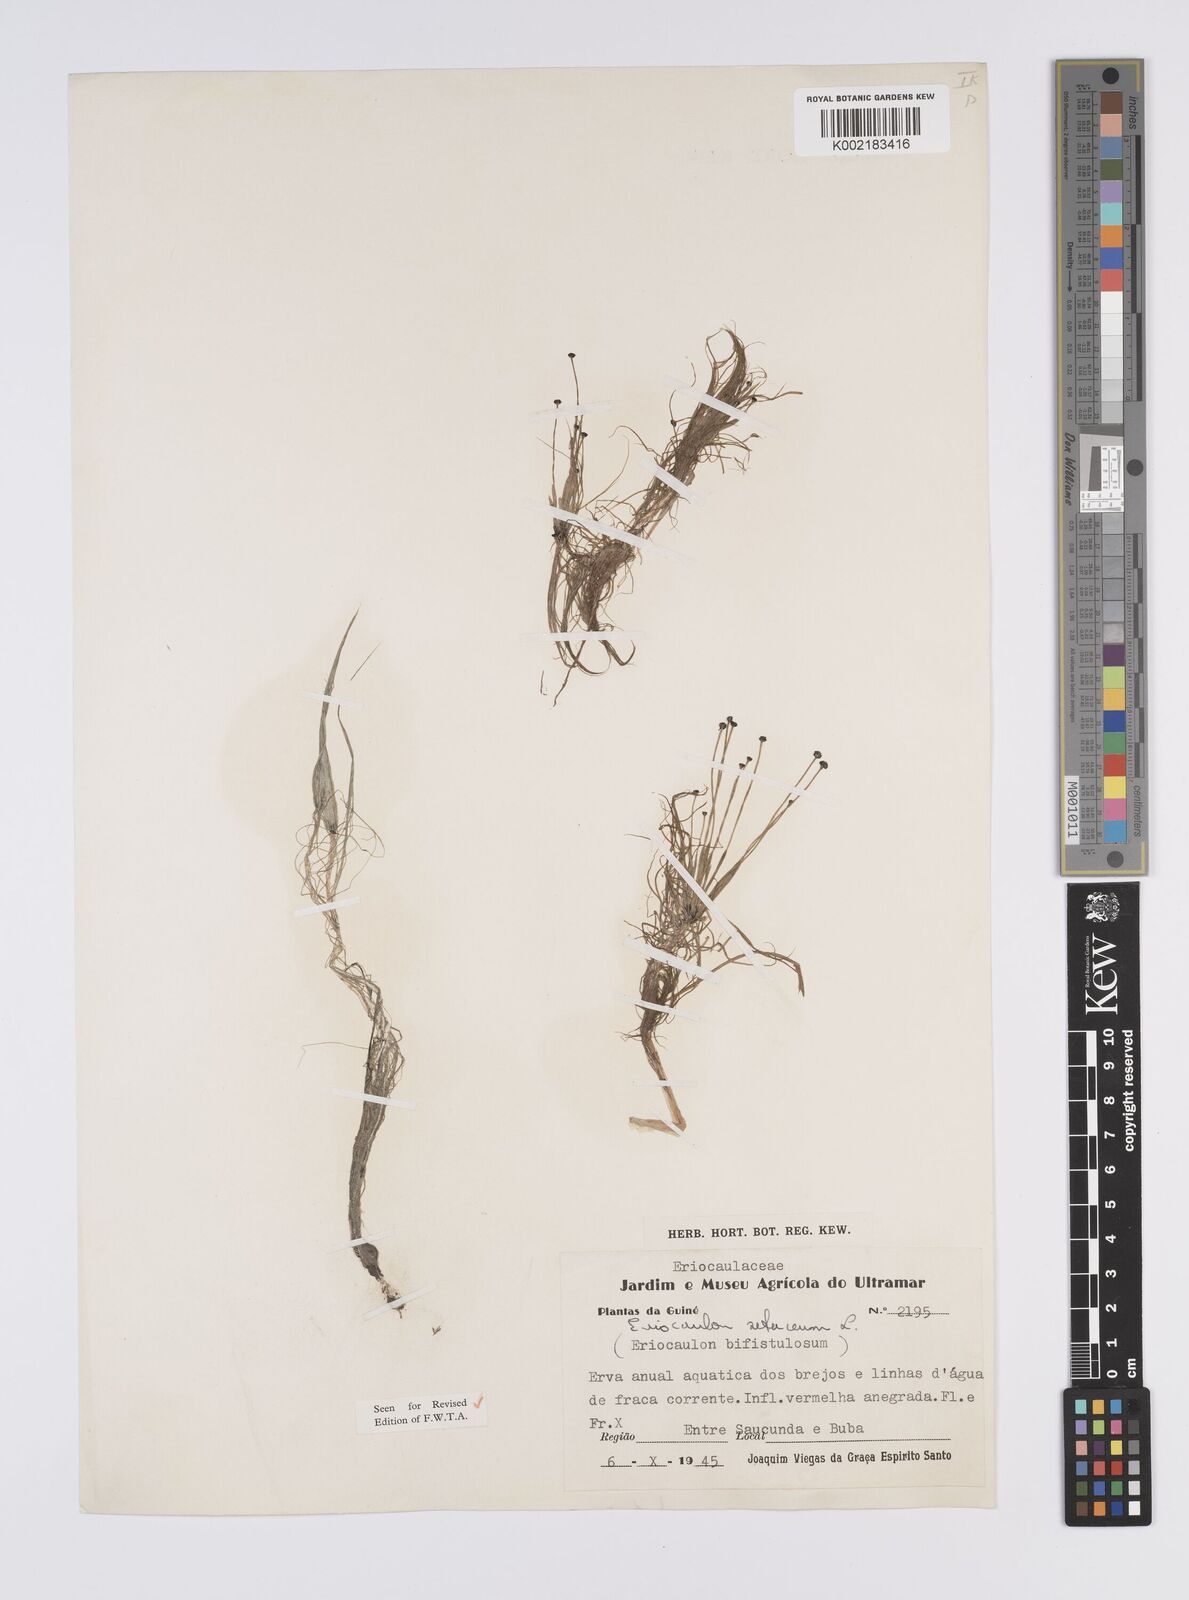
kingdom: Plantae
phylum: Tracheophyta
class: Liliopsida
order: Poales
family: Eriocaulaceae
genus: Eriocaulon
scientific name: Eriocaulon setaceum
